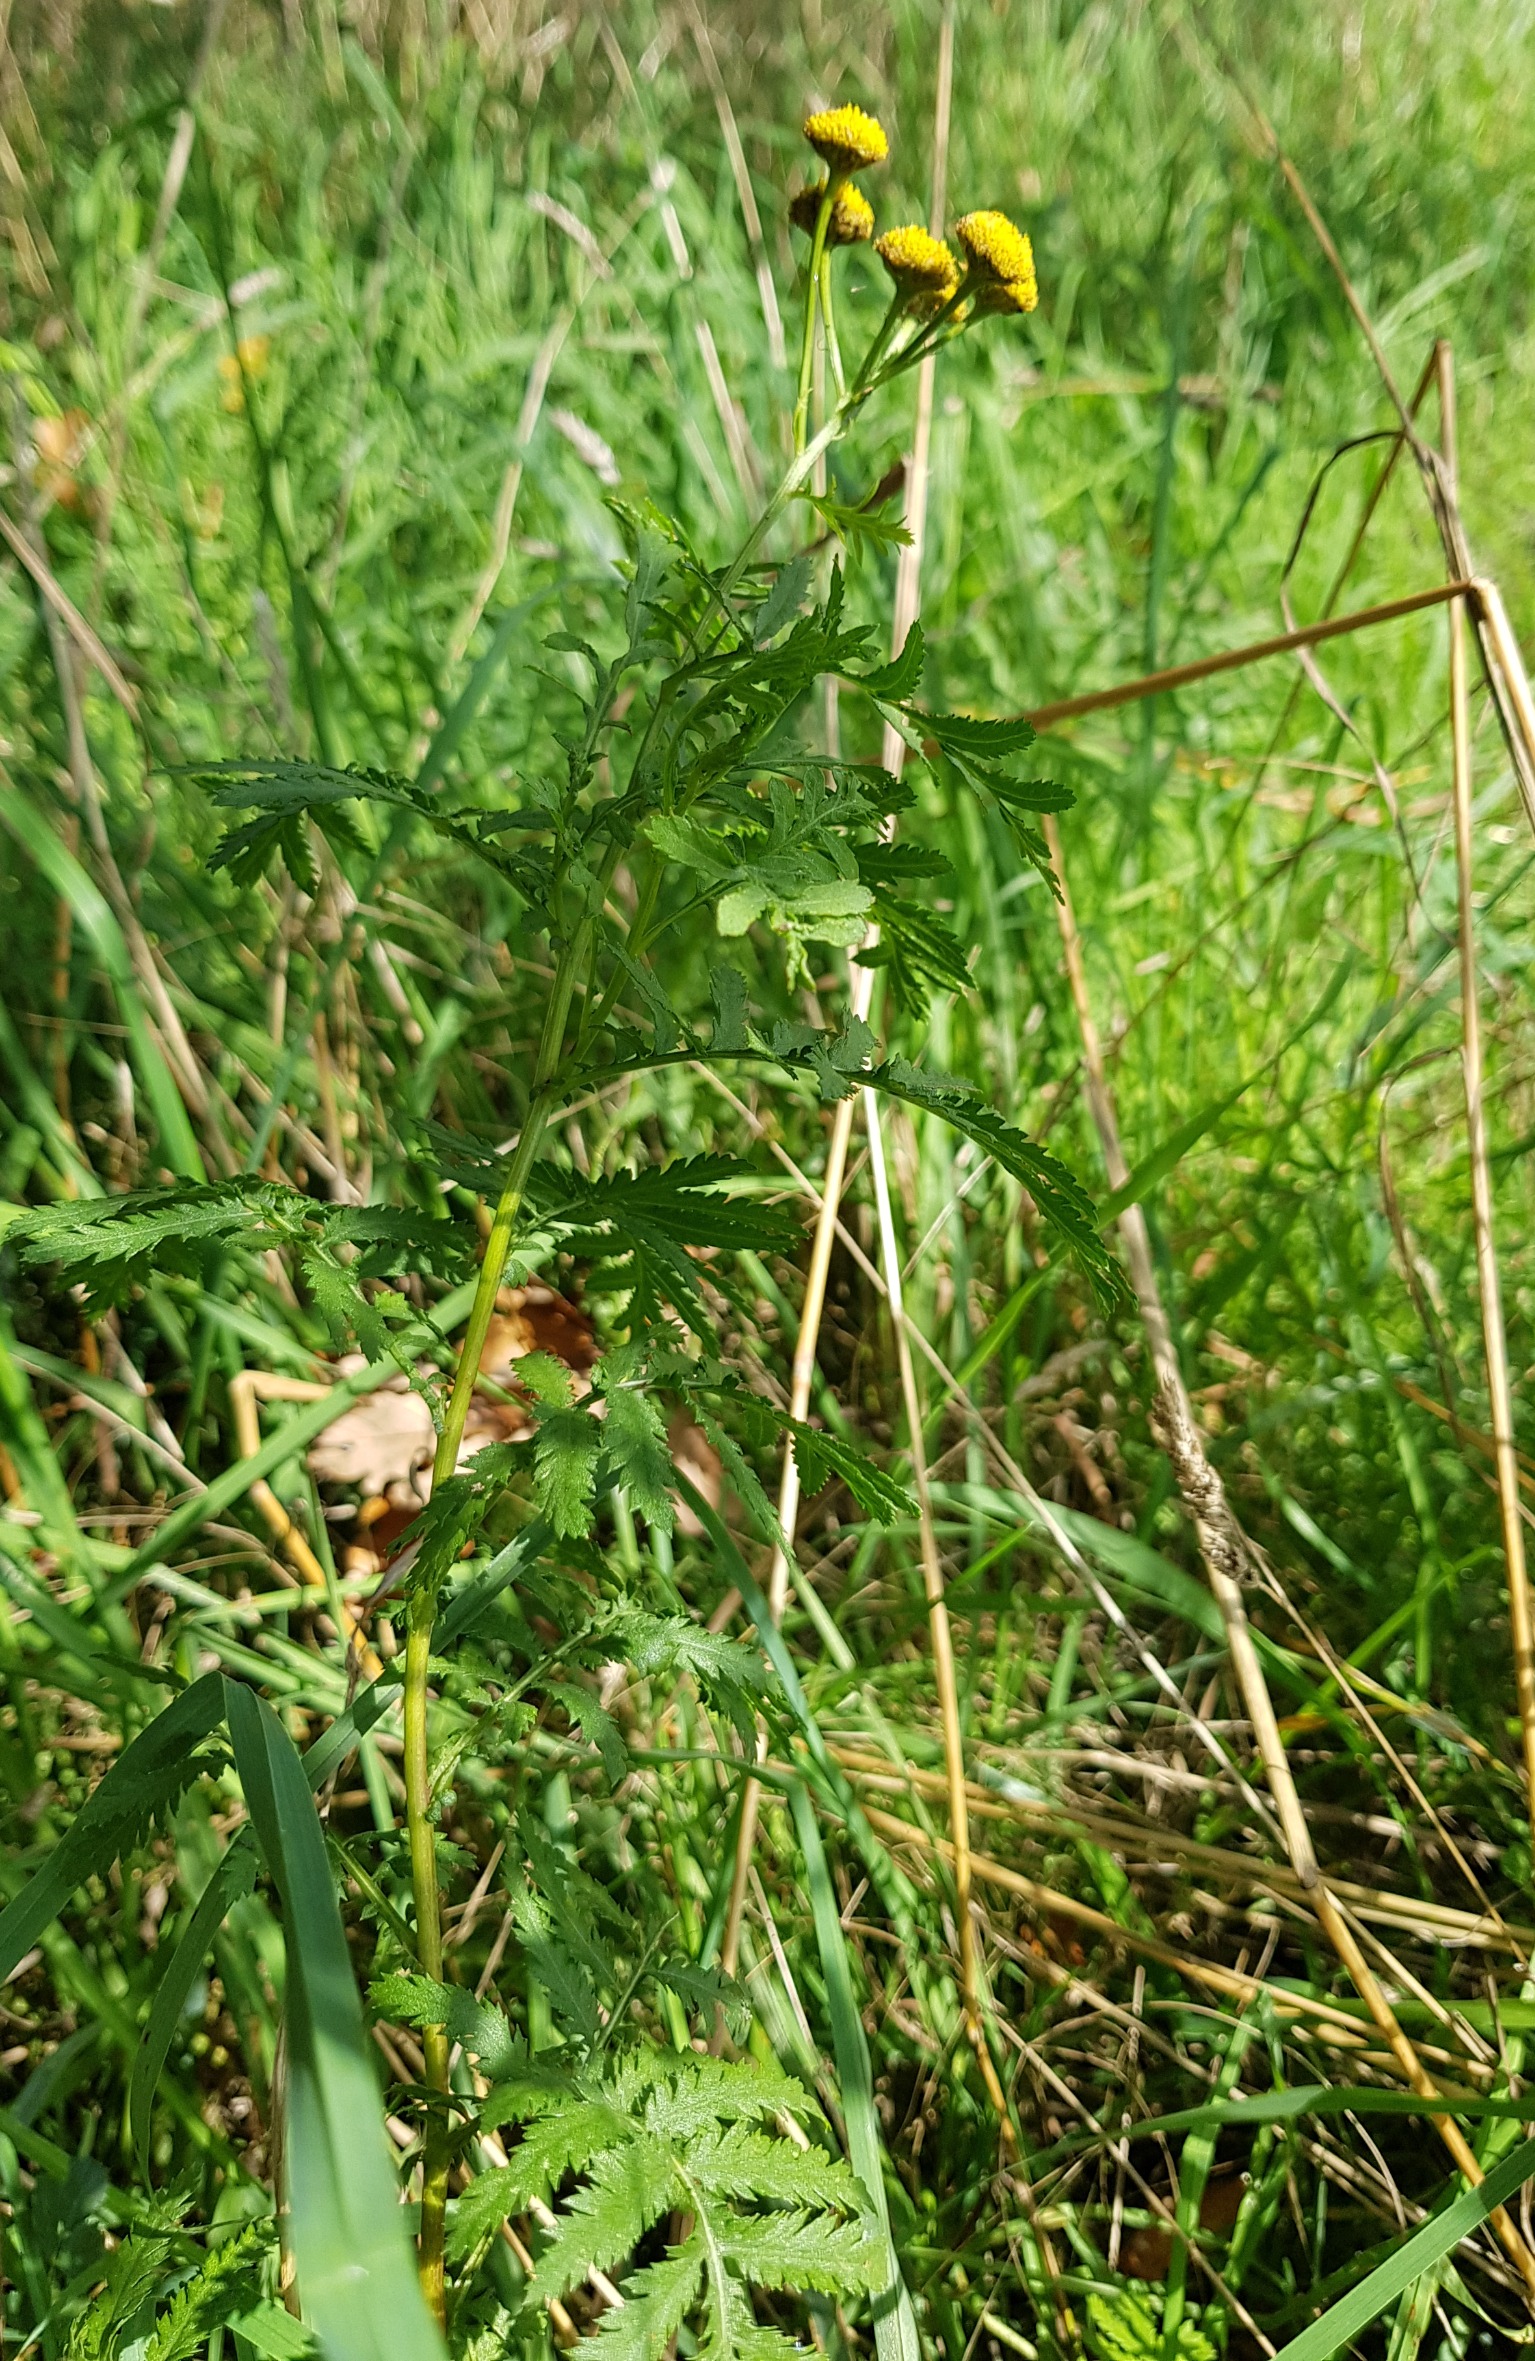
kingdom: Plantae
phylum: Tracheophyta
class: Magnoliopsida
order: Asterales
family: Asteraceae
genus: Tanacetum
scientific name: Tanacetum vulgare
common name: Rejnfan
